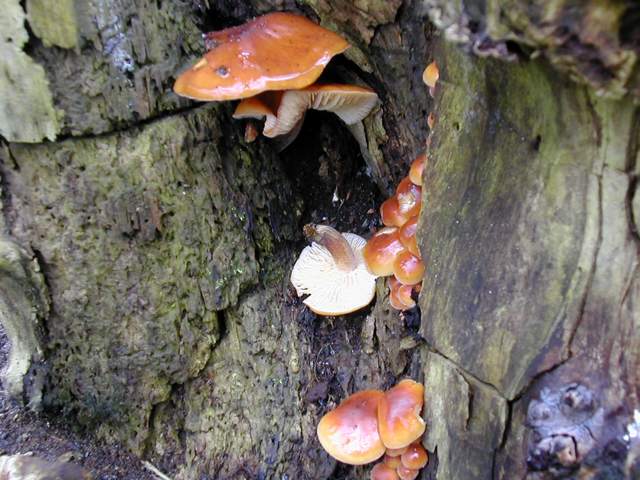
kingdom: Fungi
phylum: Basidiomycota
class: Agaricomycetes
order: Agaricales
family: Physalacriaceae
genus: Flammulina
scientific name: Flammulina velutipes
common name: gul fløjlsfod
